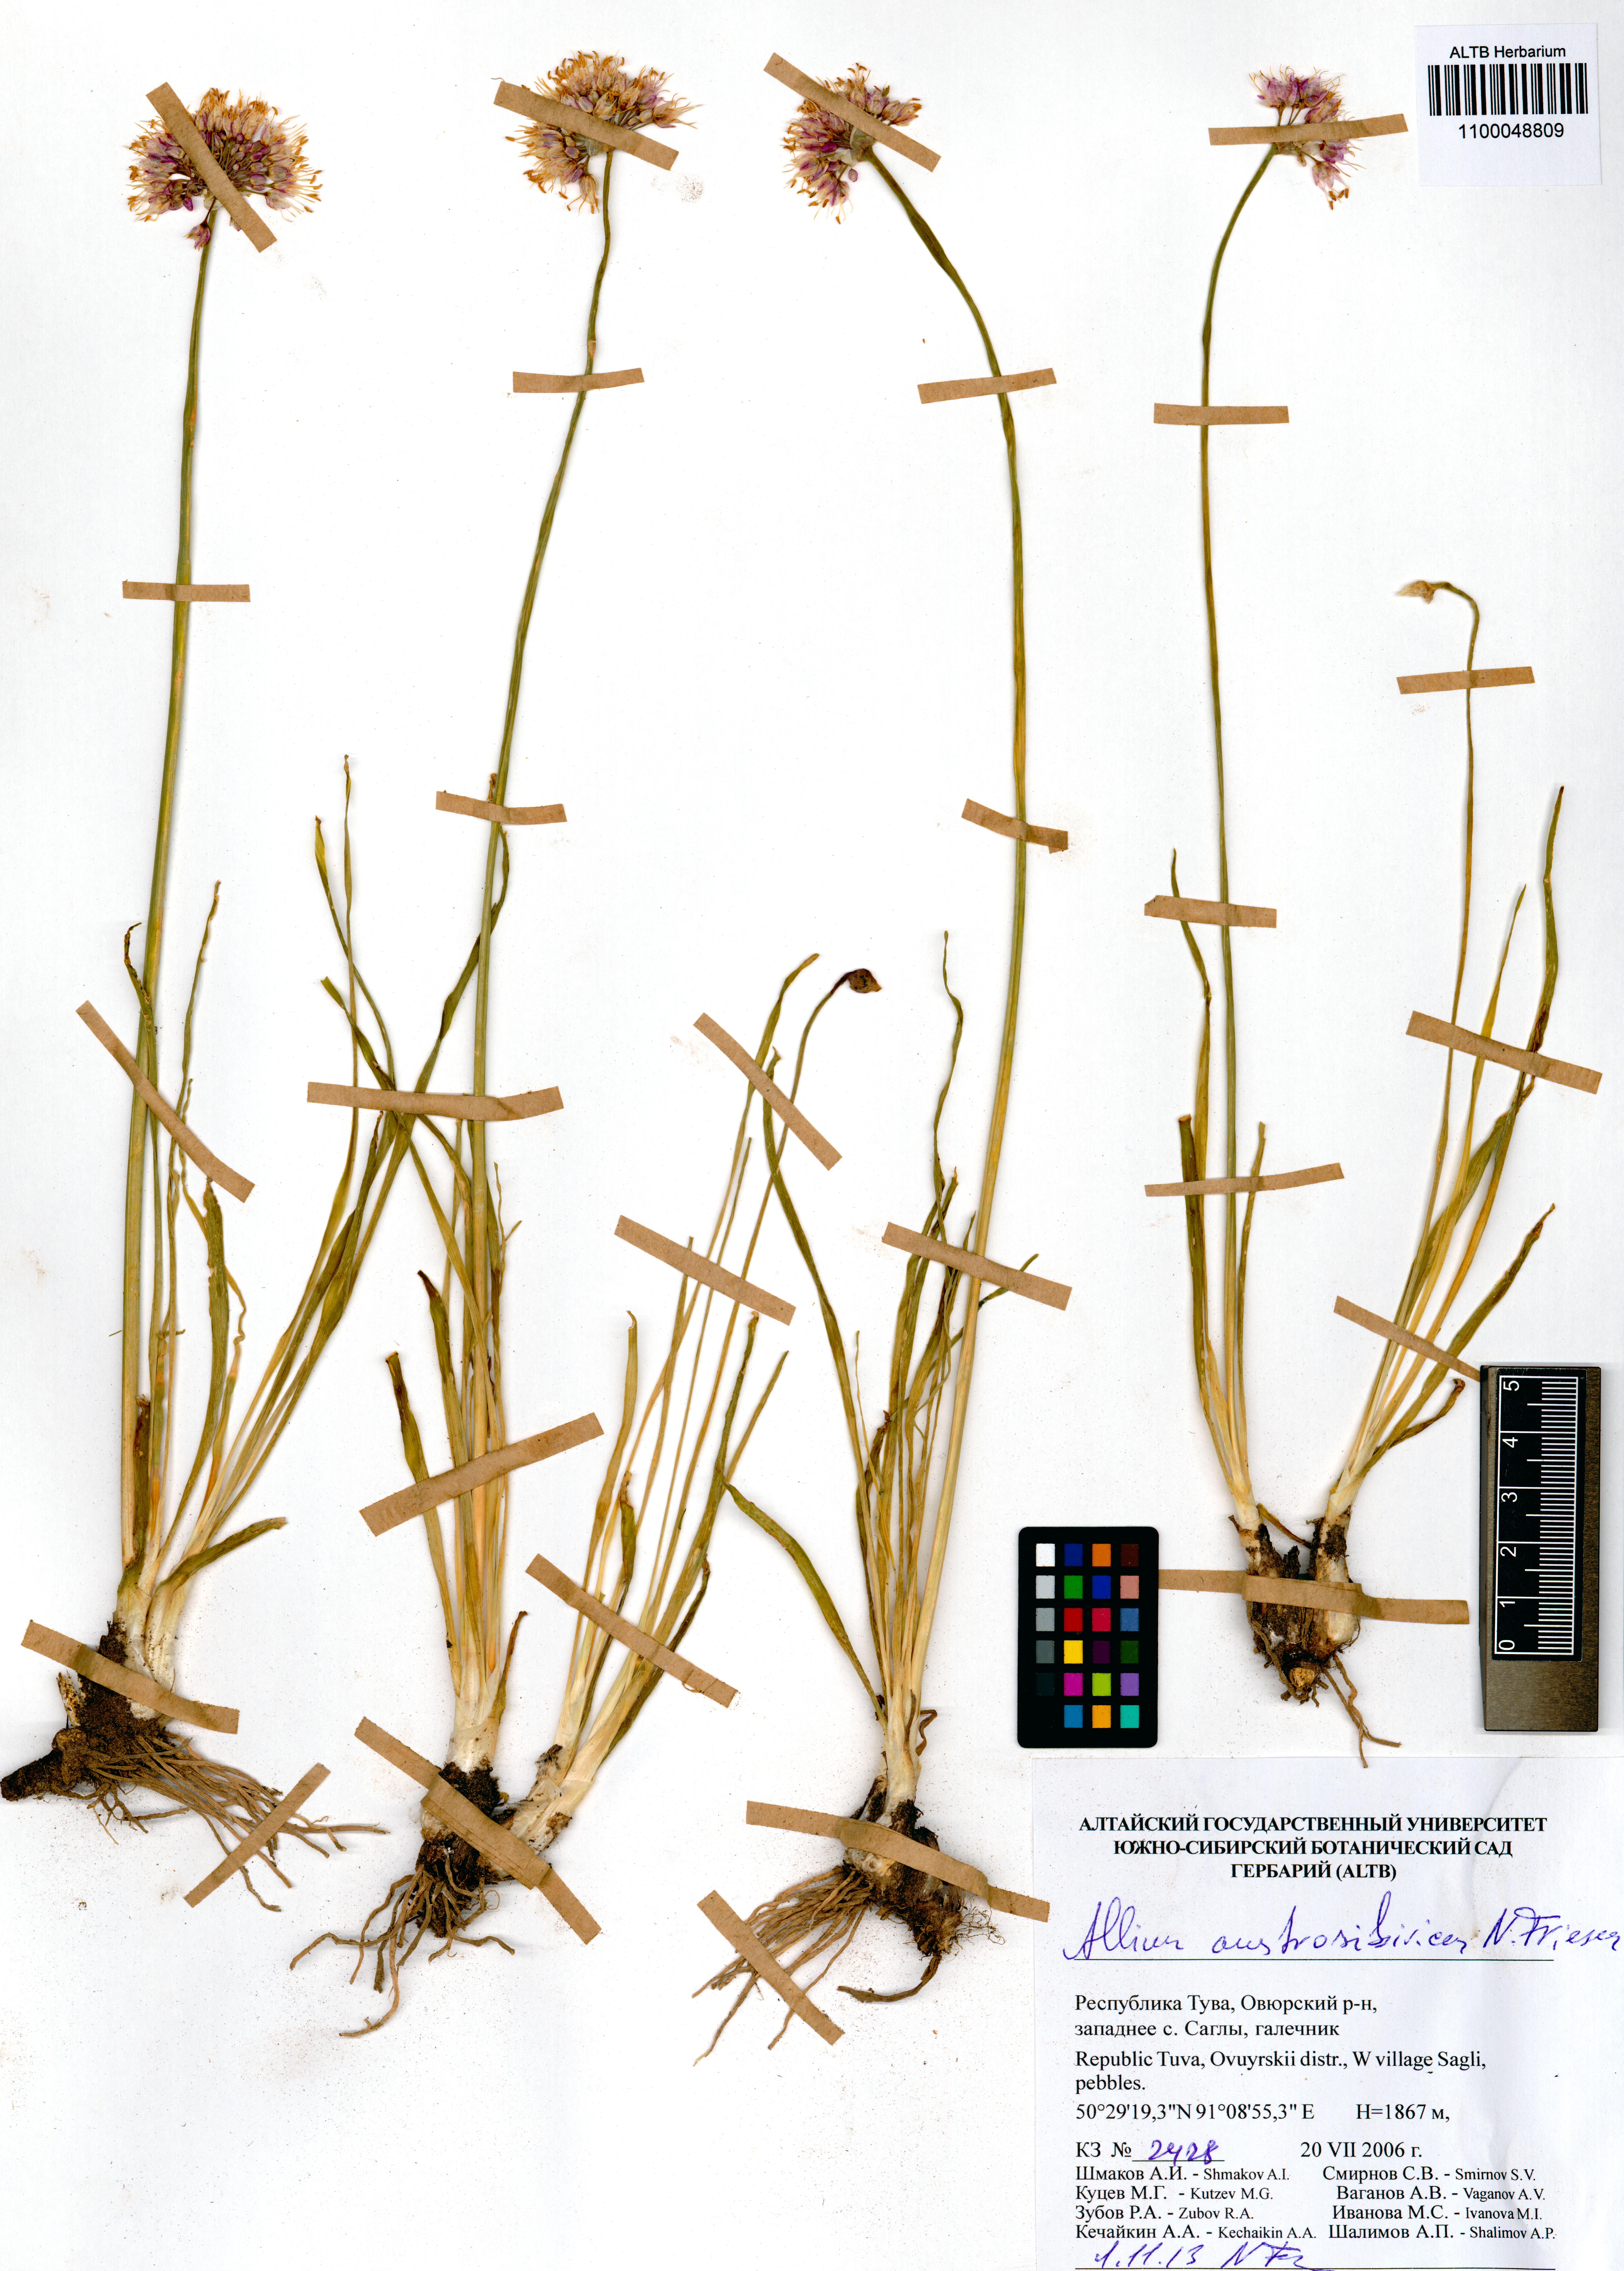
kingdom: Plantae
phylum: Tracheophyta
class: Liliopsida
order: Asparagales
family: Amaryllidaceae
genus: Allium
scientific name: Allium austrosibiricum
